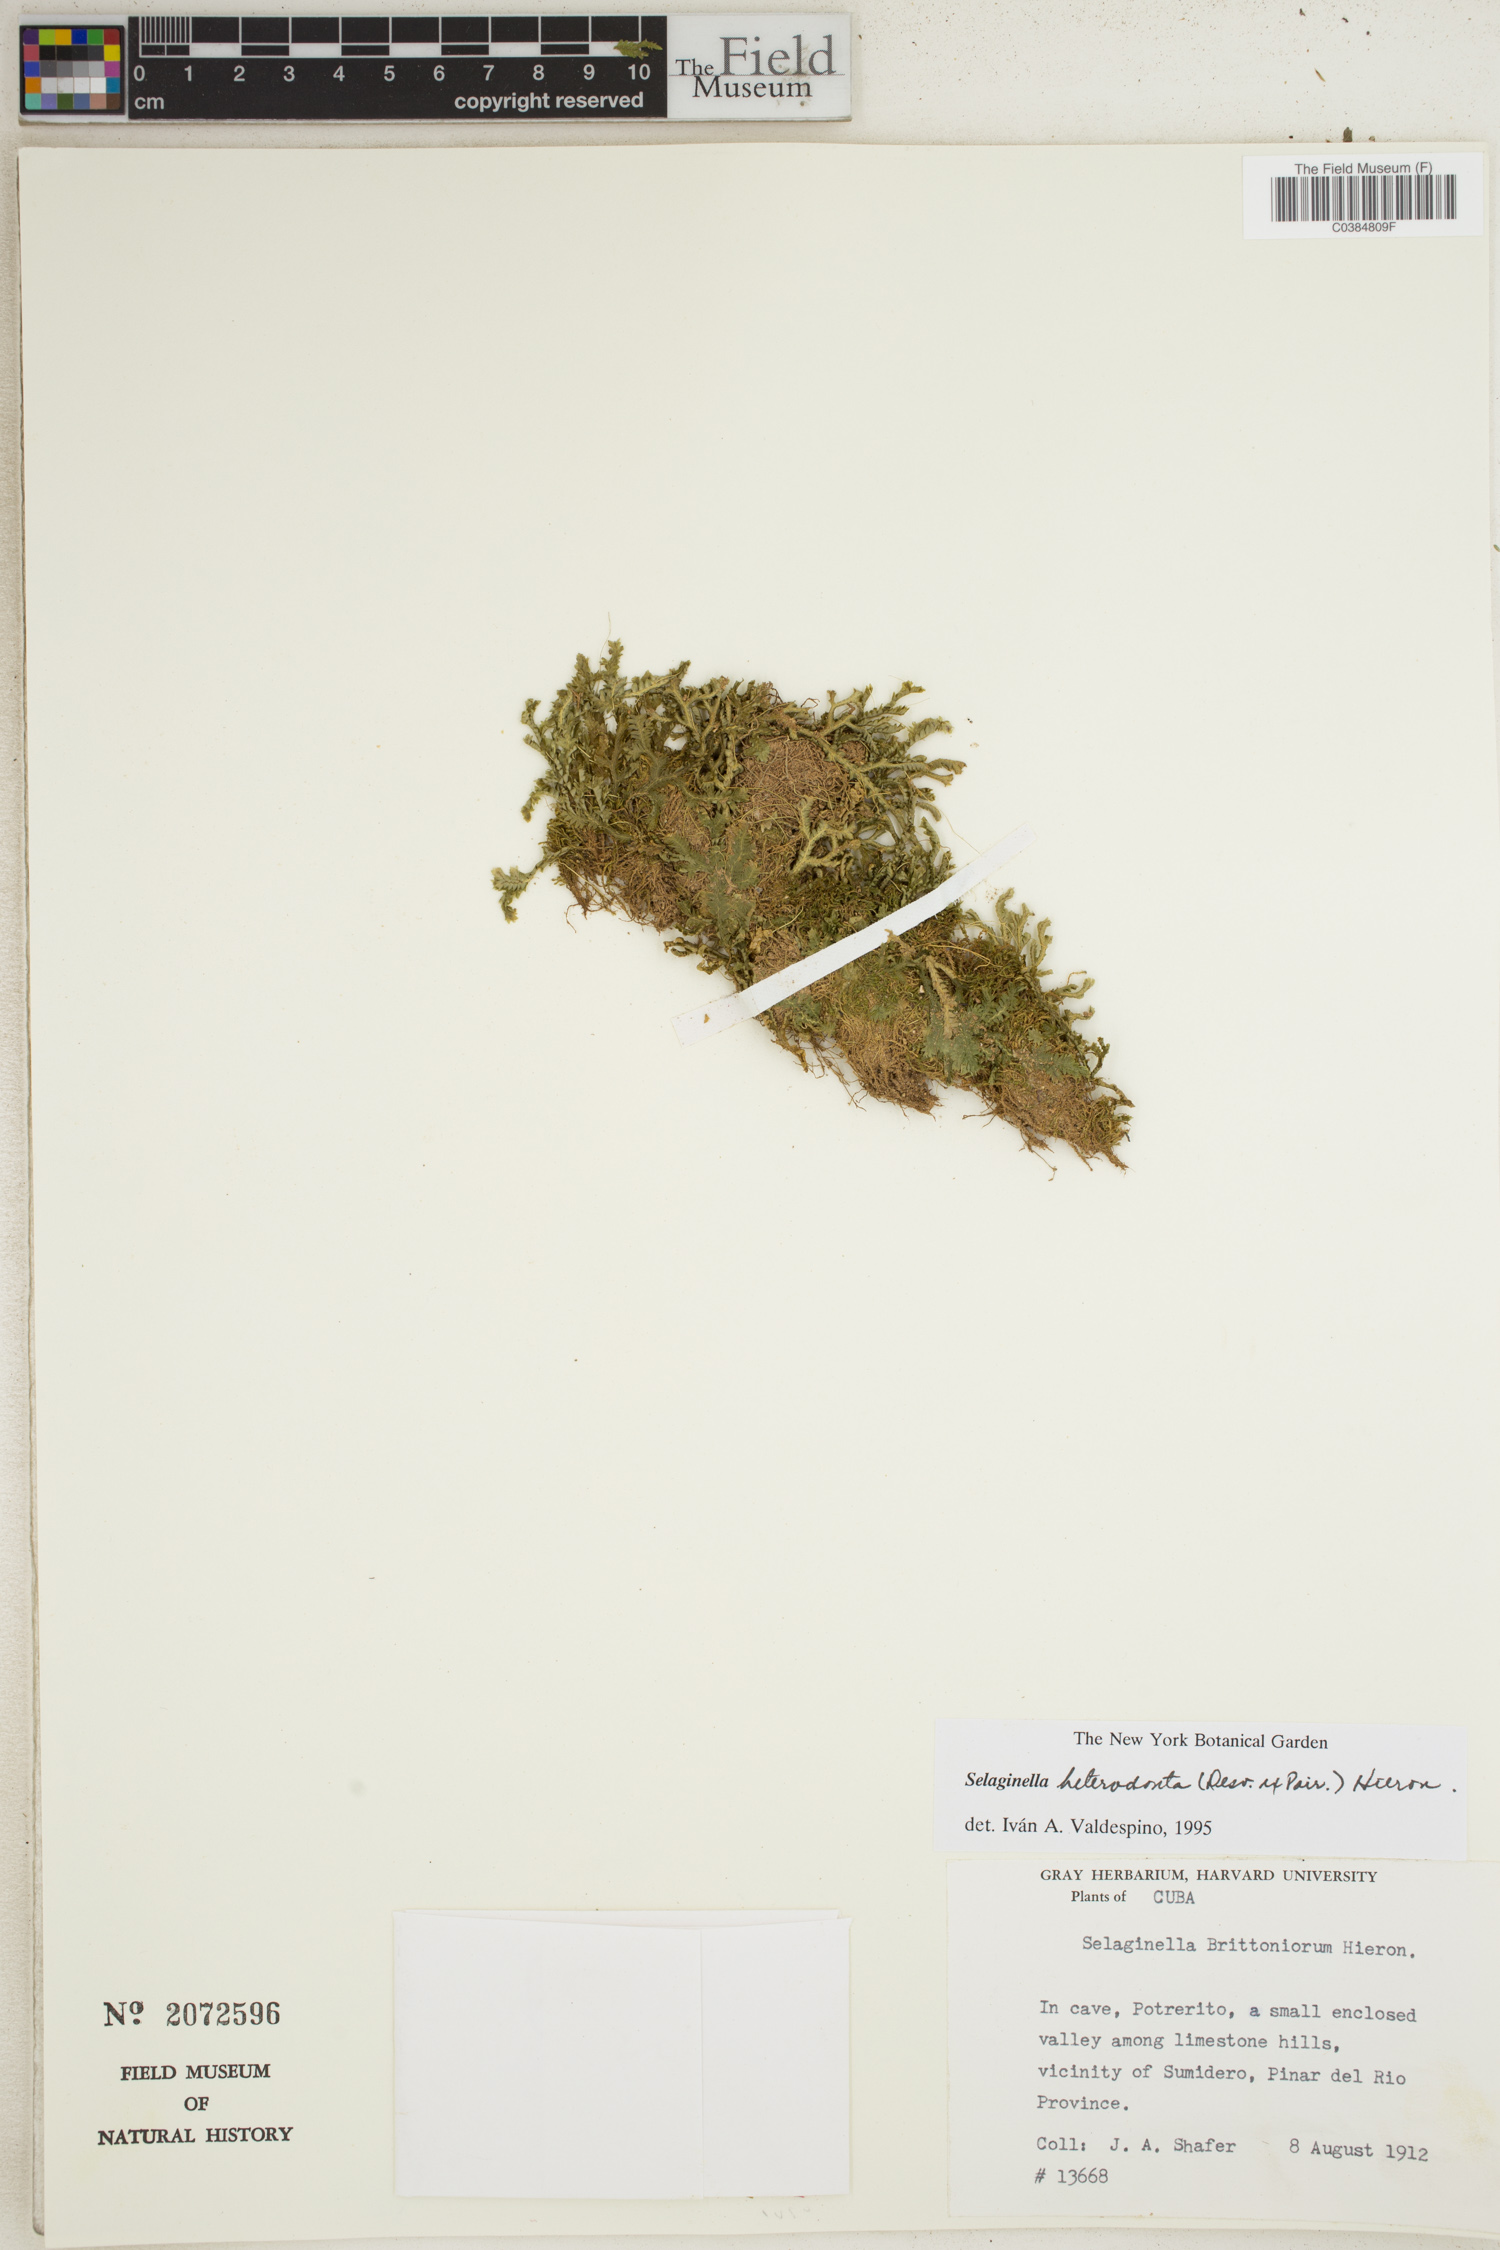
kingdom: Plantae
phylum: Tracheophyta
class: Lycopodiopsida
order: Selaginellales
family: Selaginellaceae
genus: Selaginella
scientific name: Selaginella heterodonta
